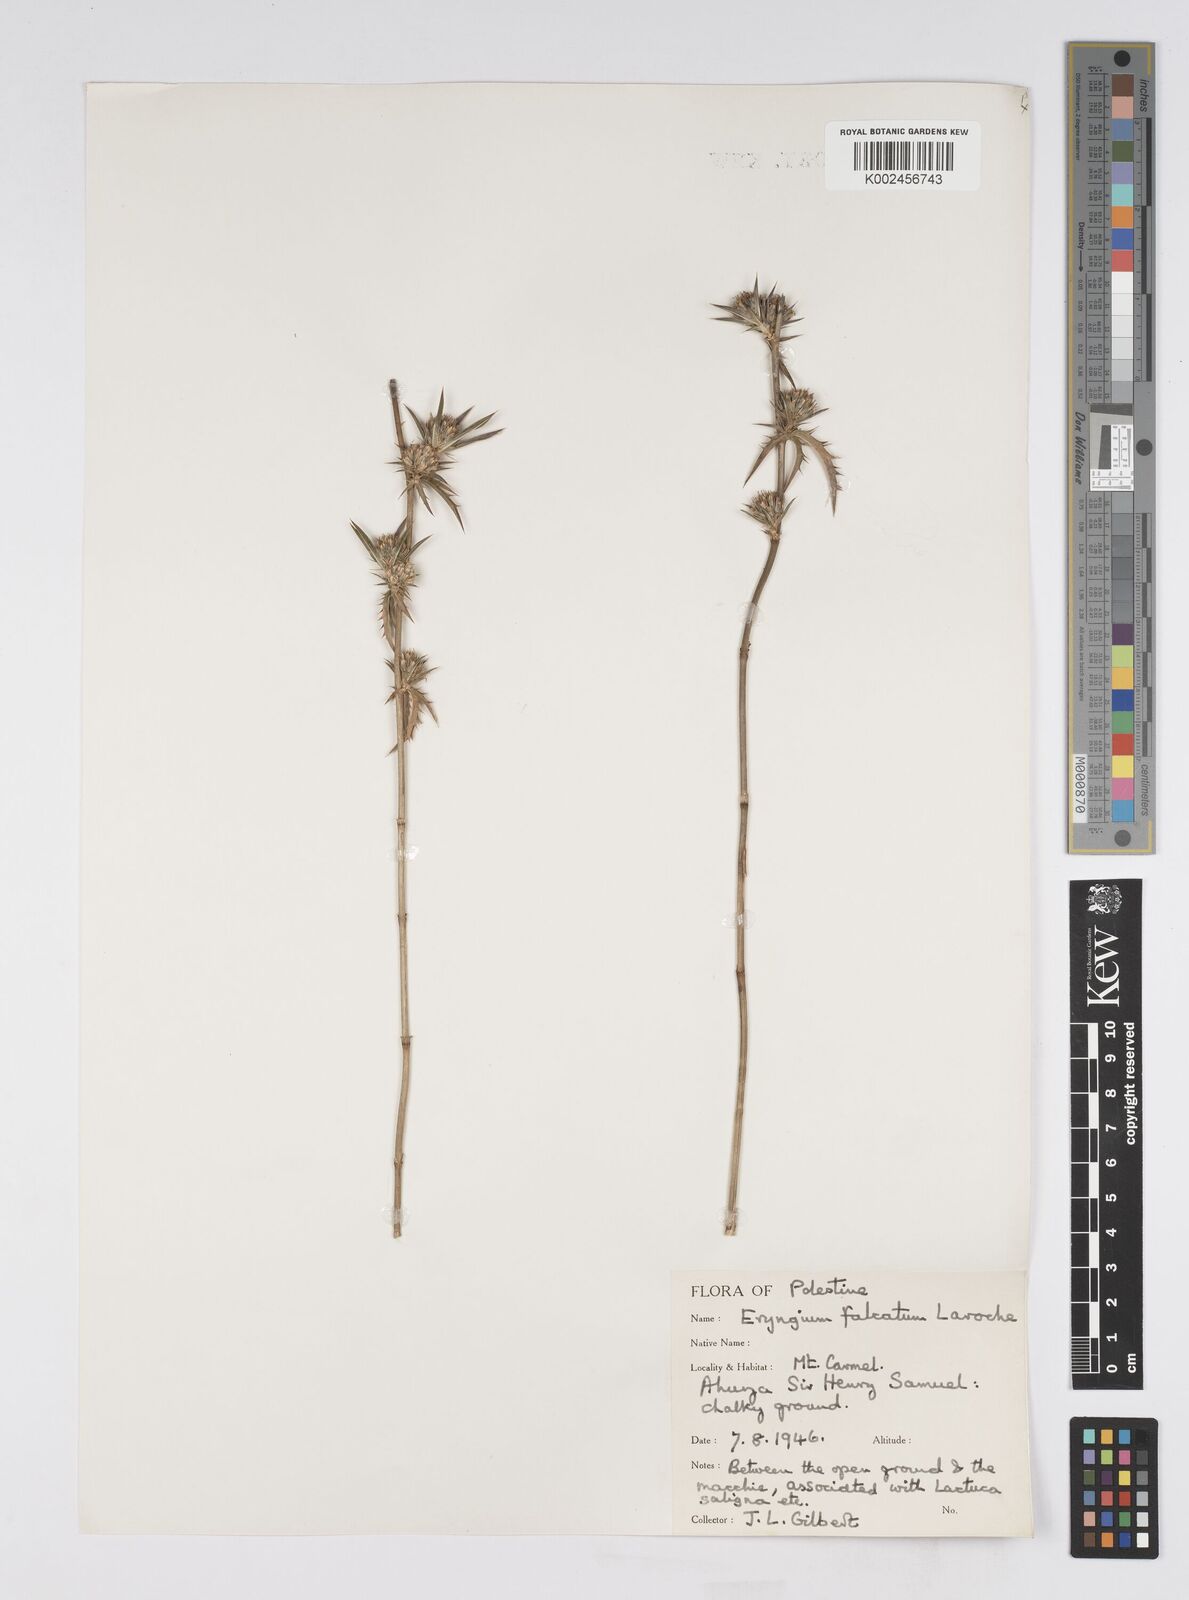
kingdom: Plantae
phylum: Tracheophyta
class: Magnoliopsida
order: Apiales
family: Apiaceae
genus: Eryngium
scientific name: Eryngium falcatum
